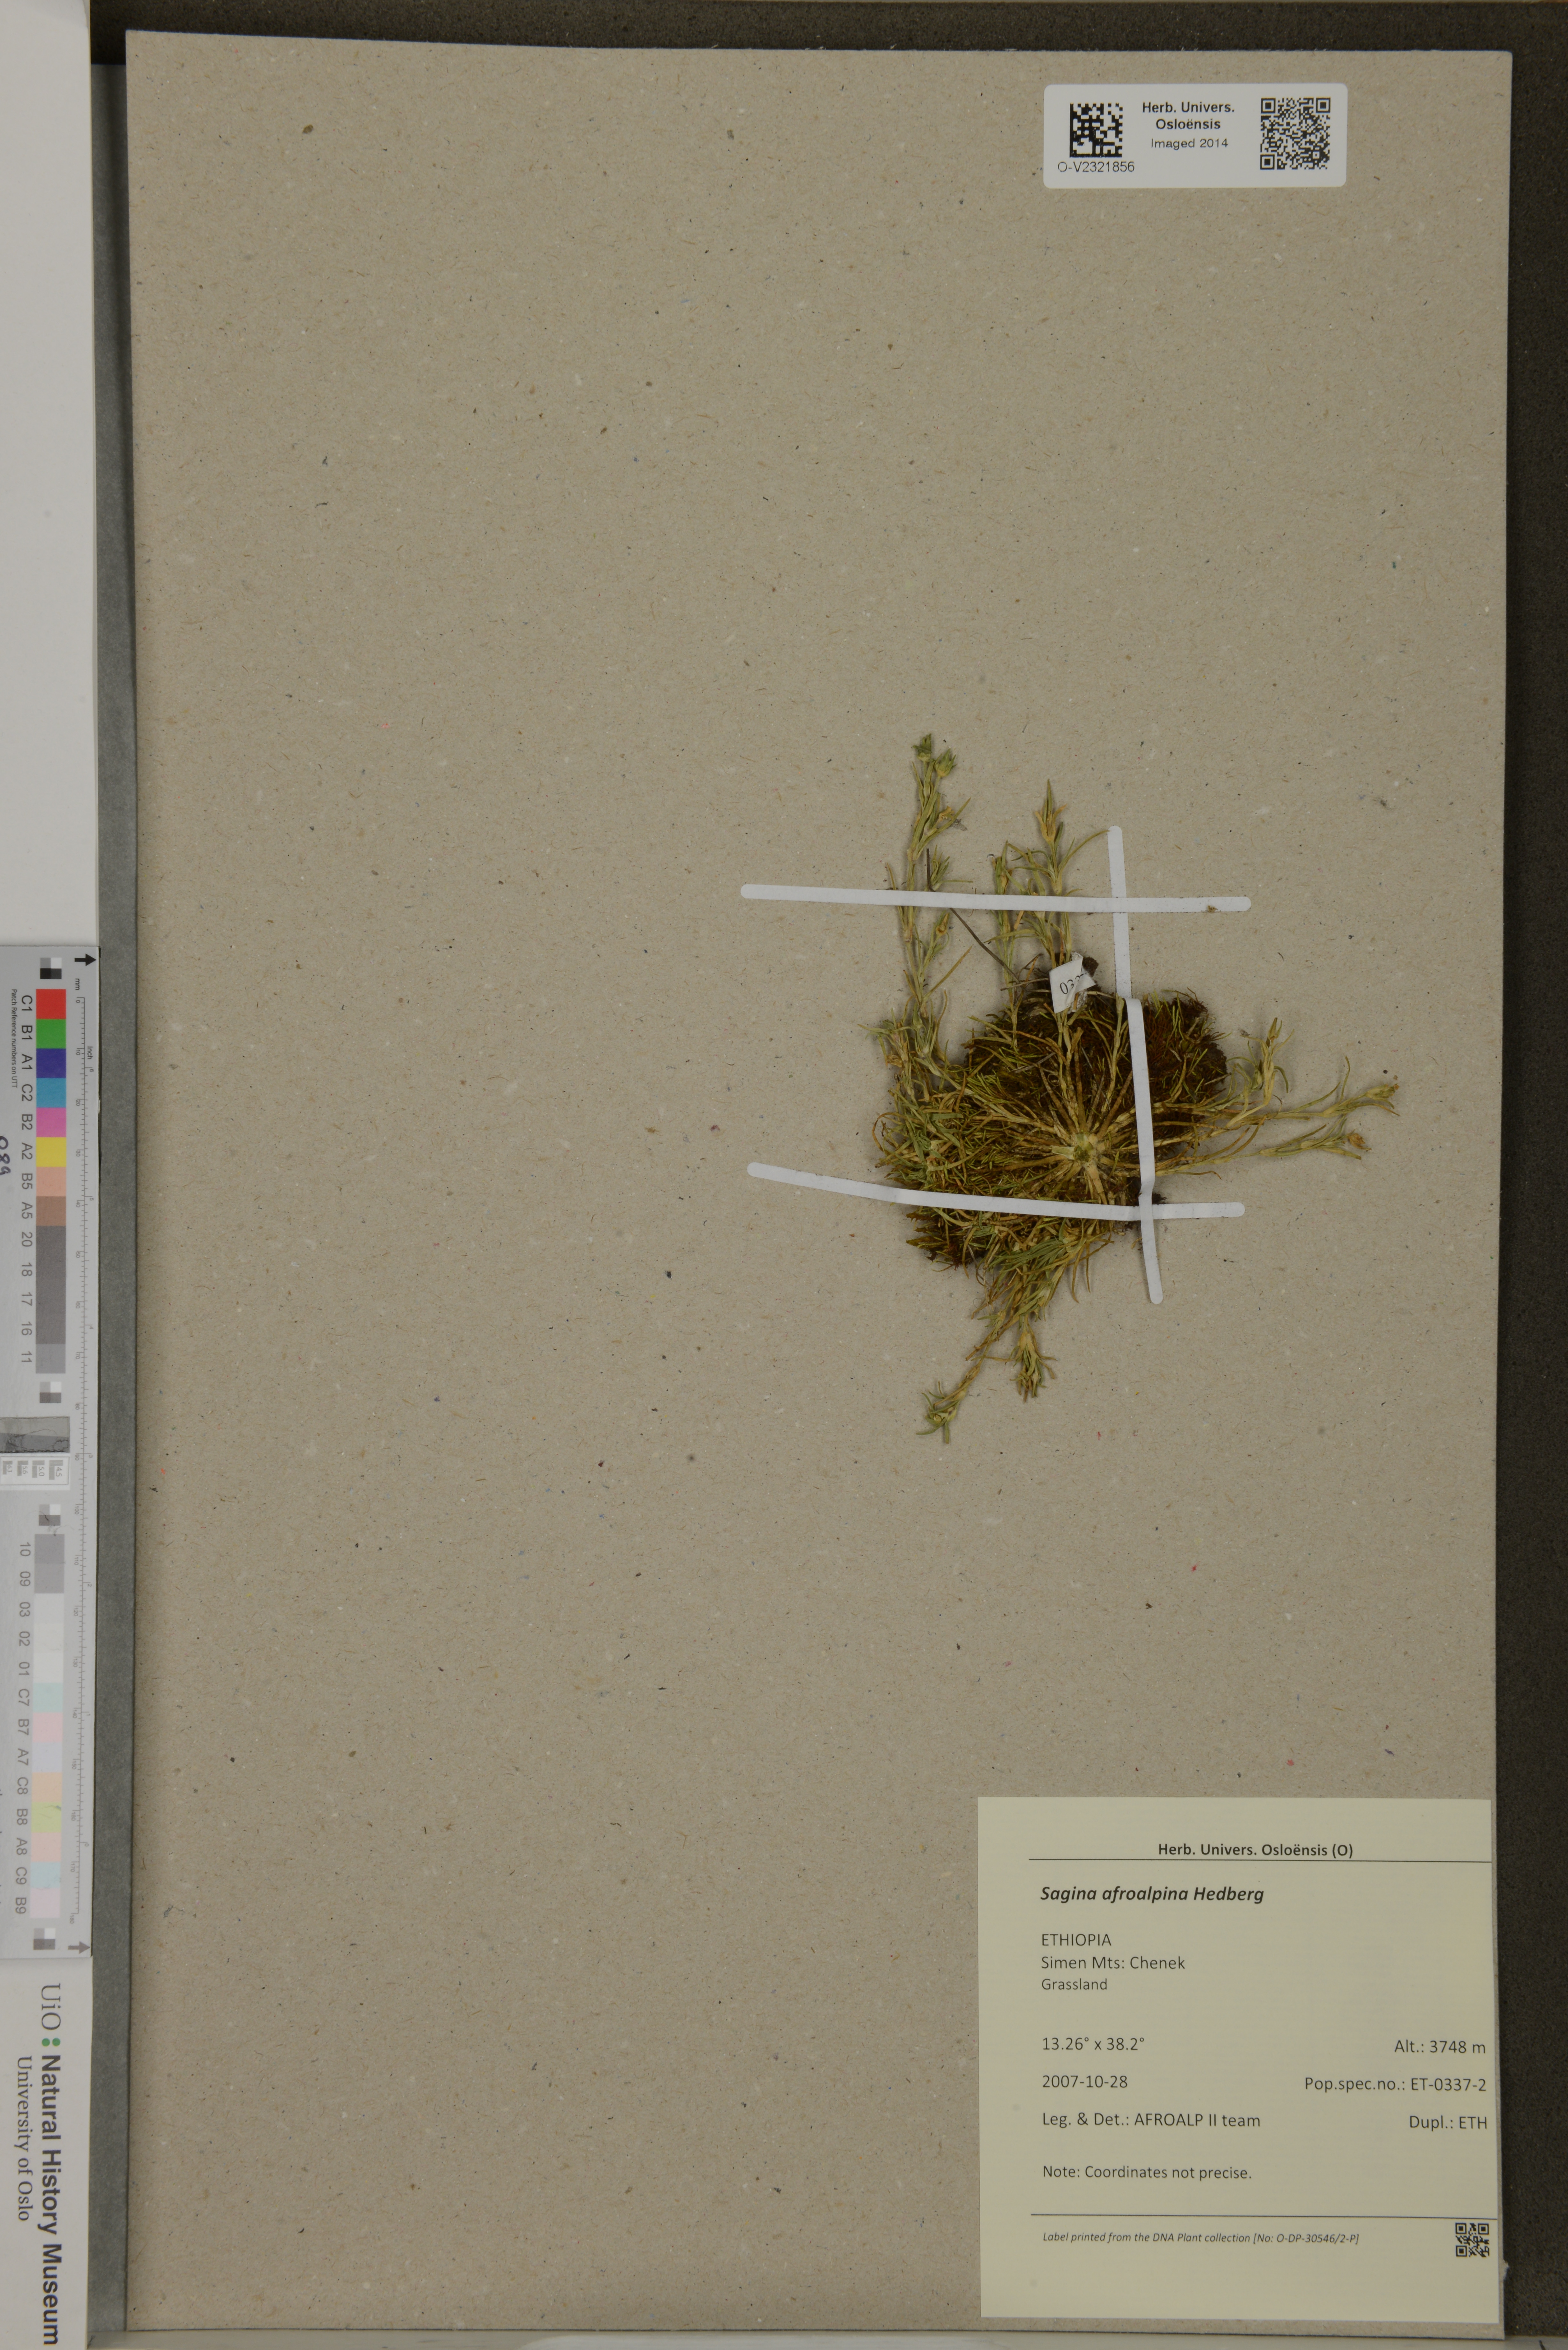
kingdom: Plantae
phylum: Tracheophyta
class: Magnoliopsida
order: Caryophyllales
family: Caryophyllaceae
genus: Sagina
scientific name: Sagina afroalpina
